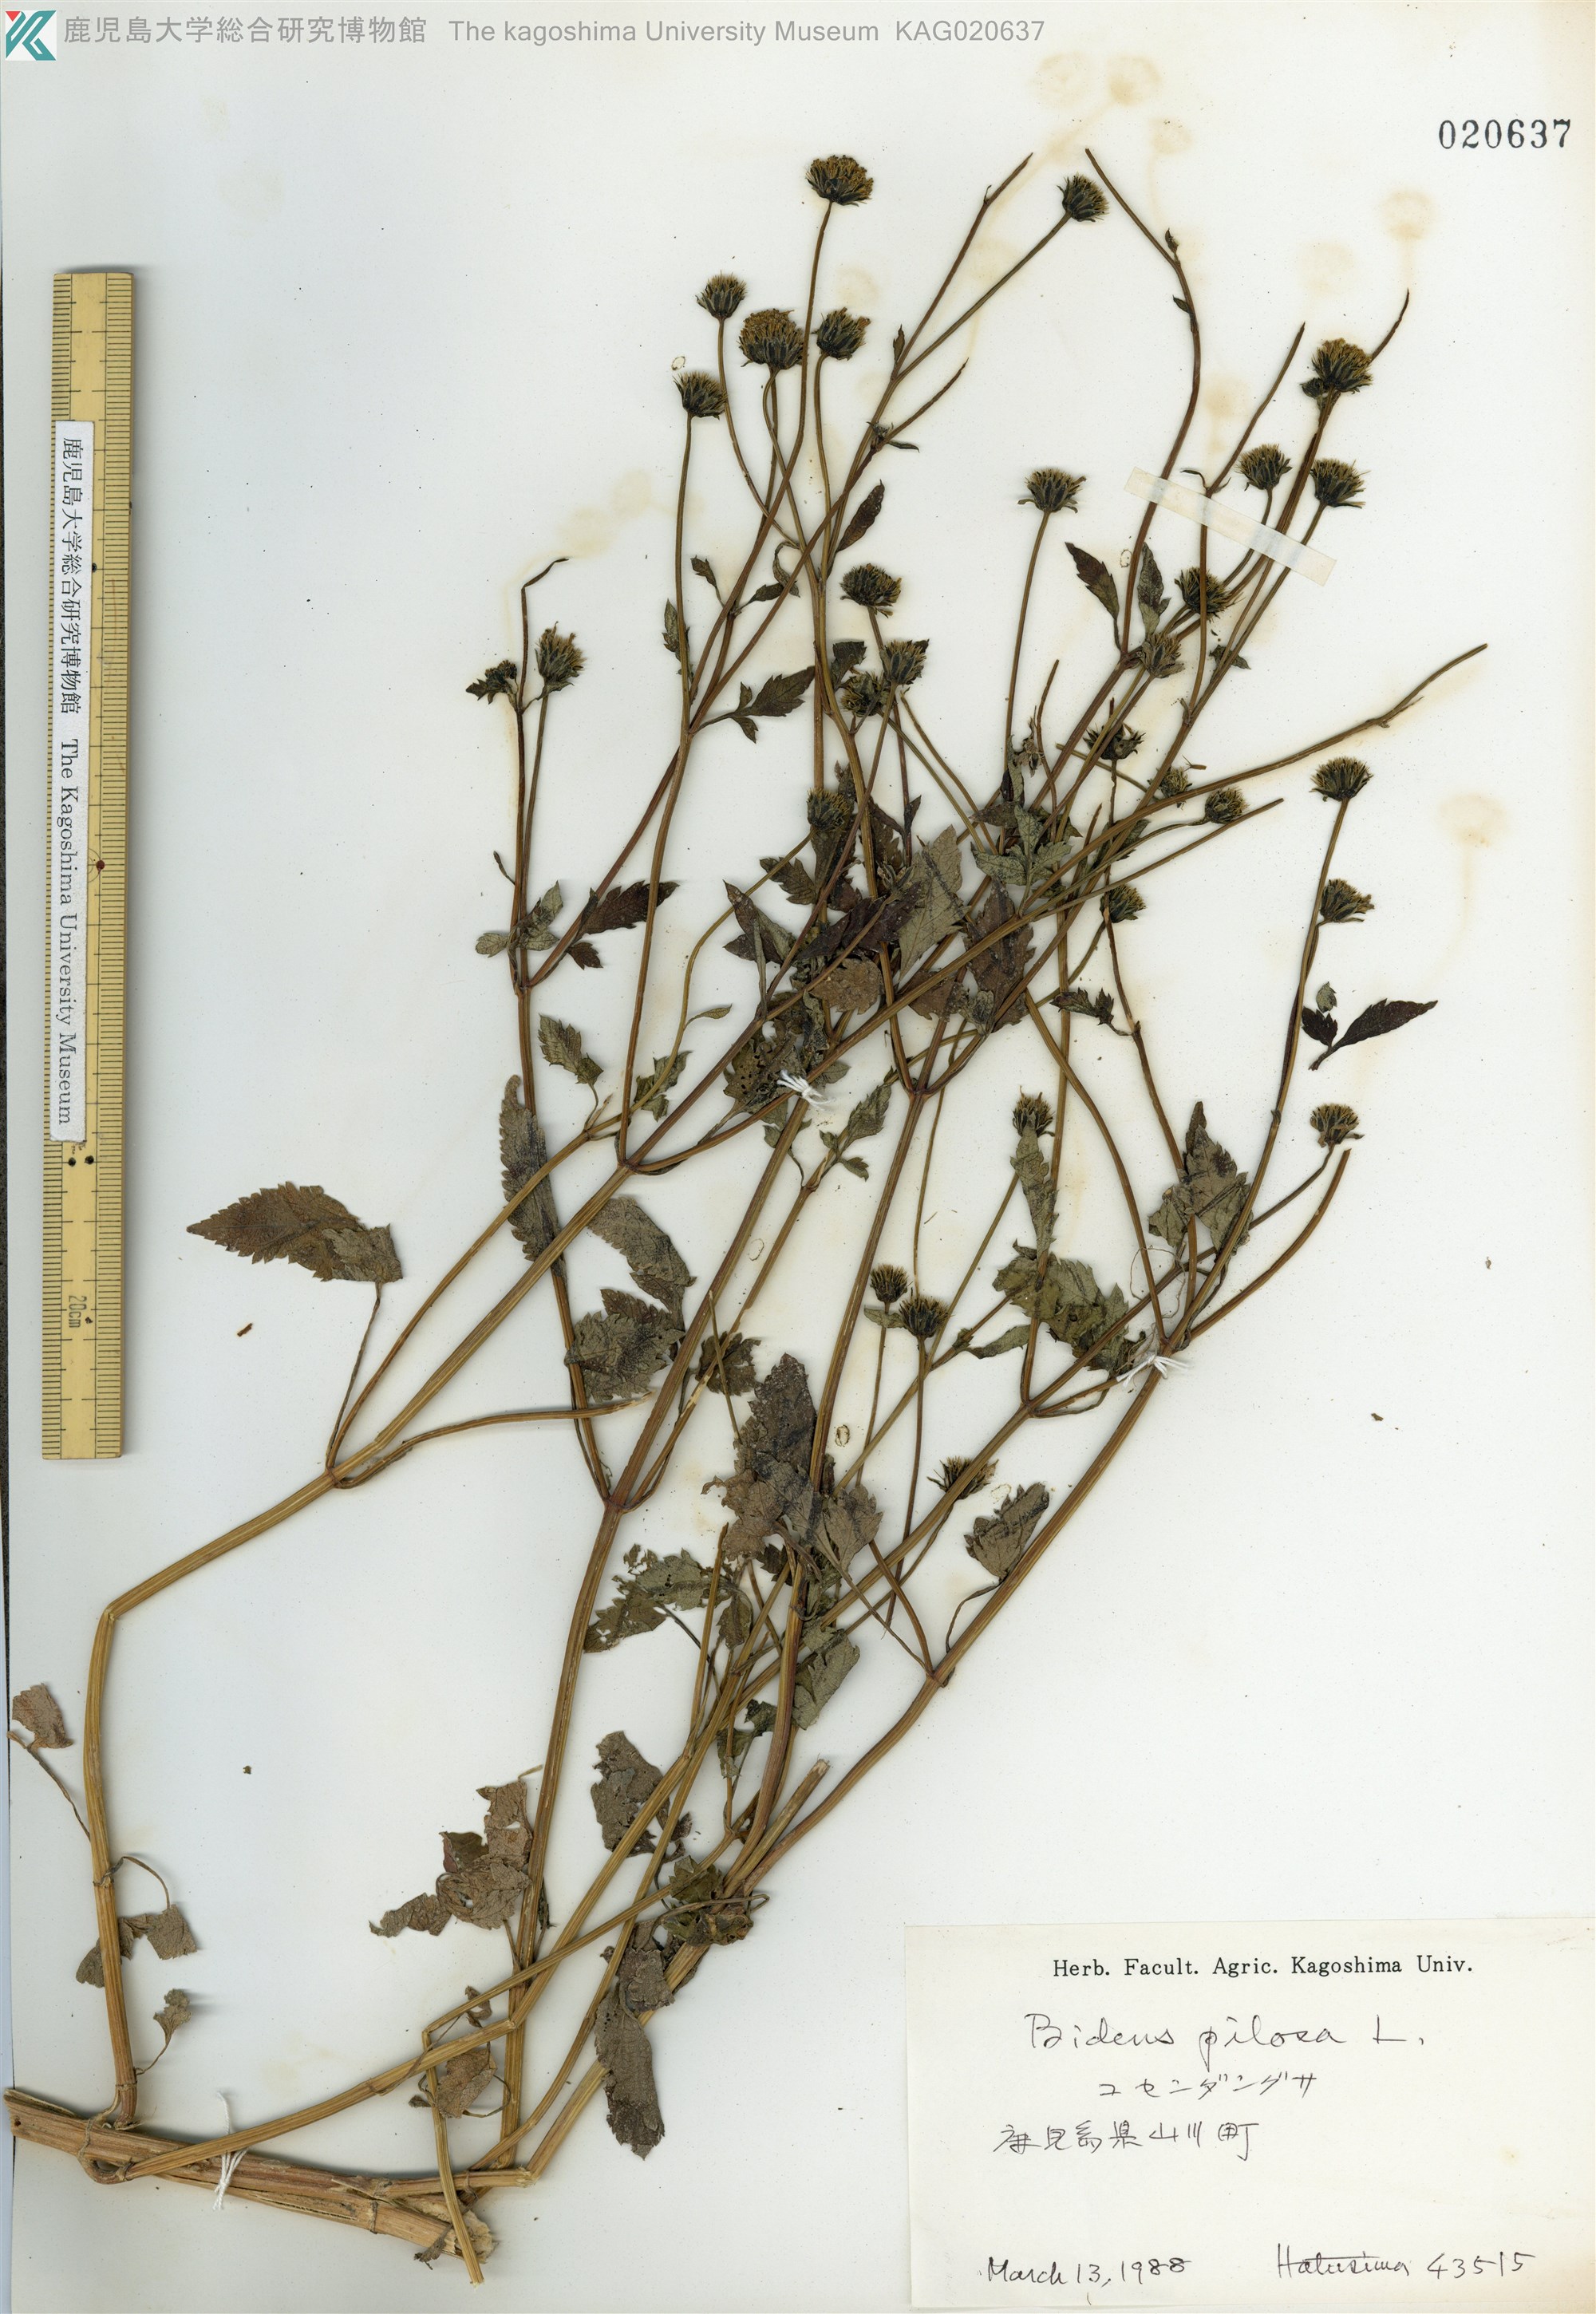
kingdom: Plantae
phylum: Tracheophyta
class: Magnoliopsida
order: Asterales
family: Asteraceae
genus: Bidens
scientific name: Bidens pilosa
